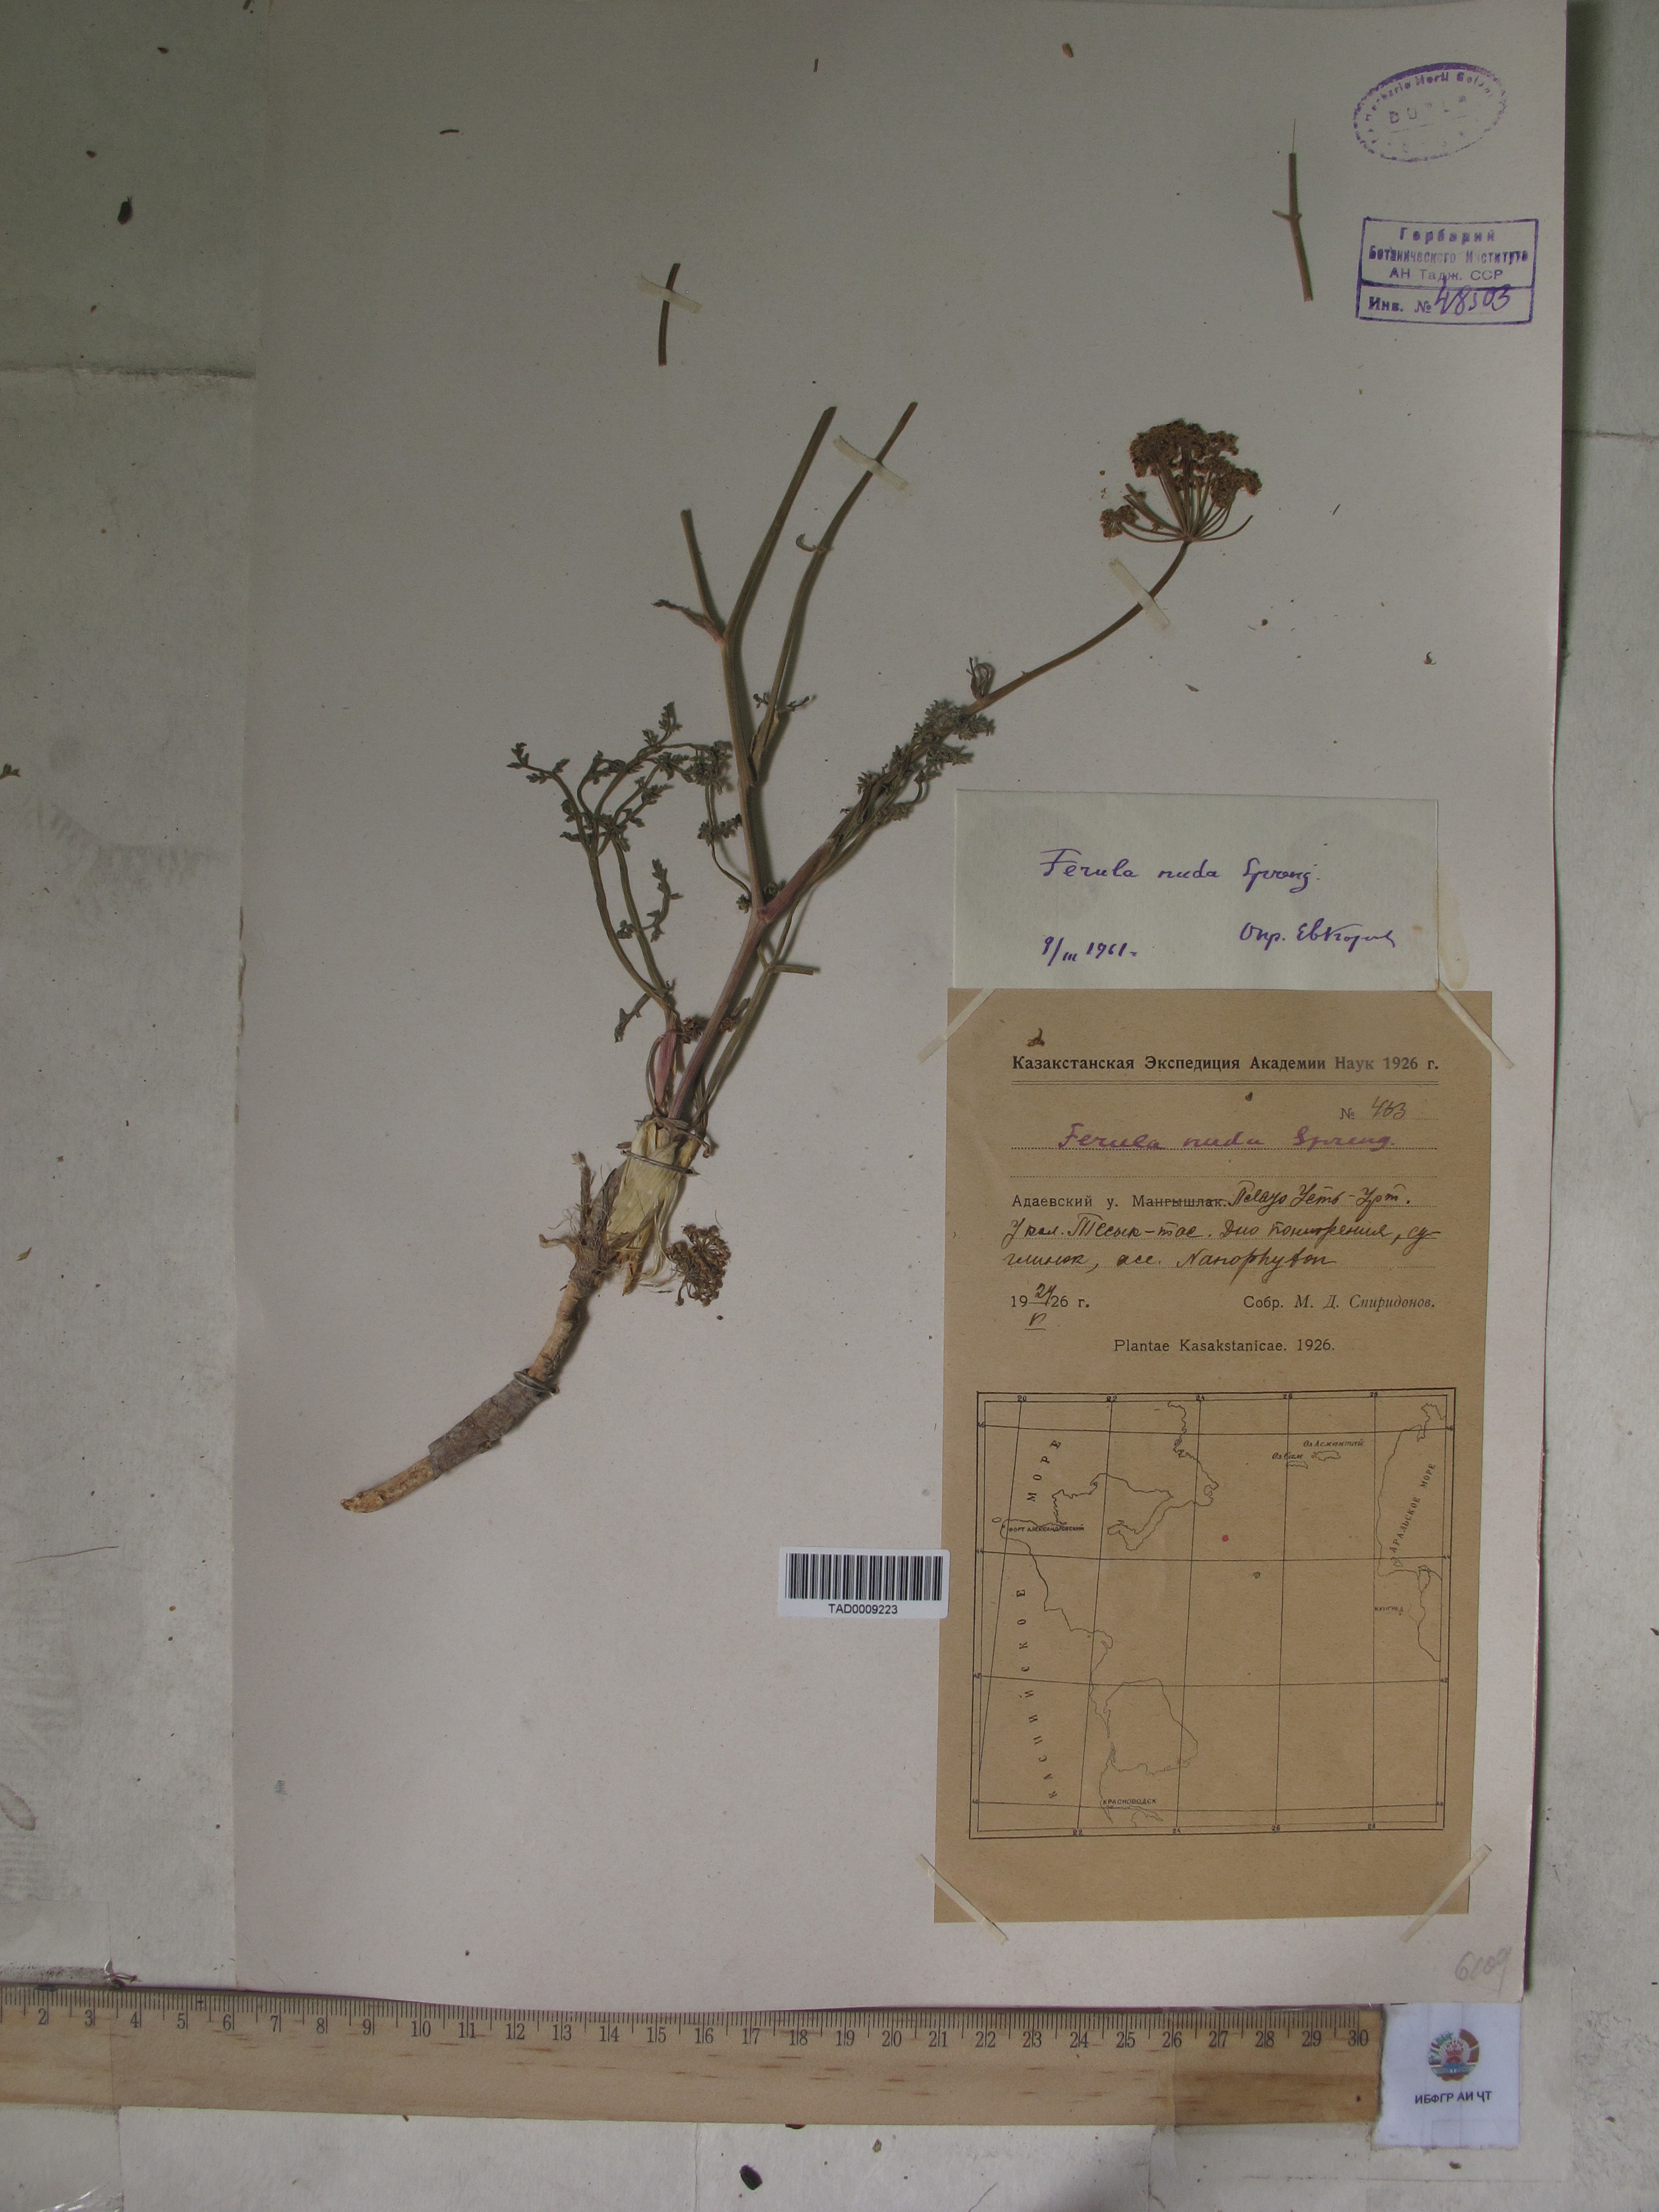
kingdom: Plantae
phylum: Tracheophyta
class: Magnoliopsida
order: Apiales
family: Apiaceae
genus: Ferula
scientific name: Ferula
